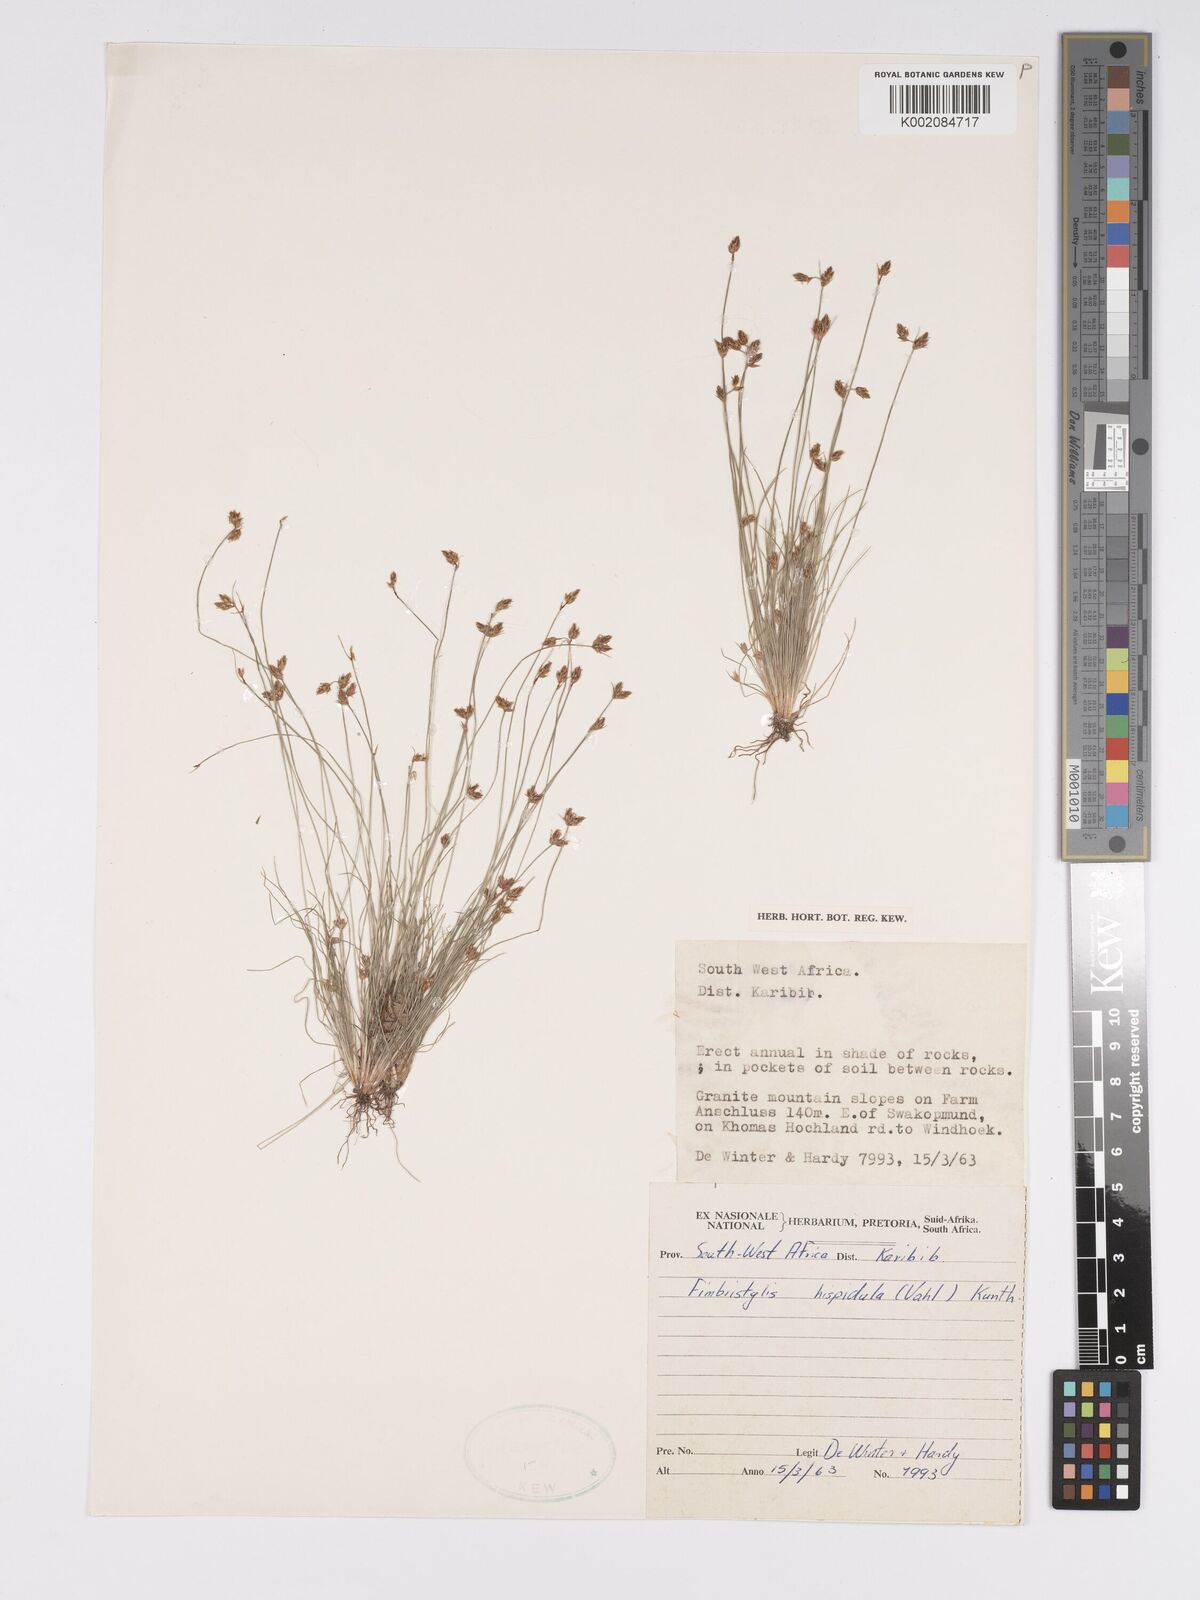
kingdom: Plantae
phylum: Tracheophyta
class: Liliopsida
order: Poales
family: Cyperaceae
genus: Bulbostylis
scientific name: Bulbostylis hispidula
